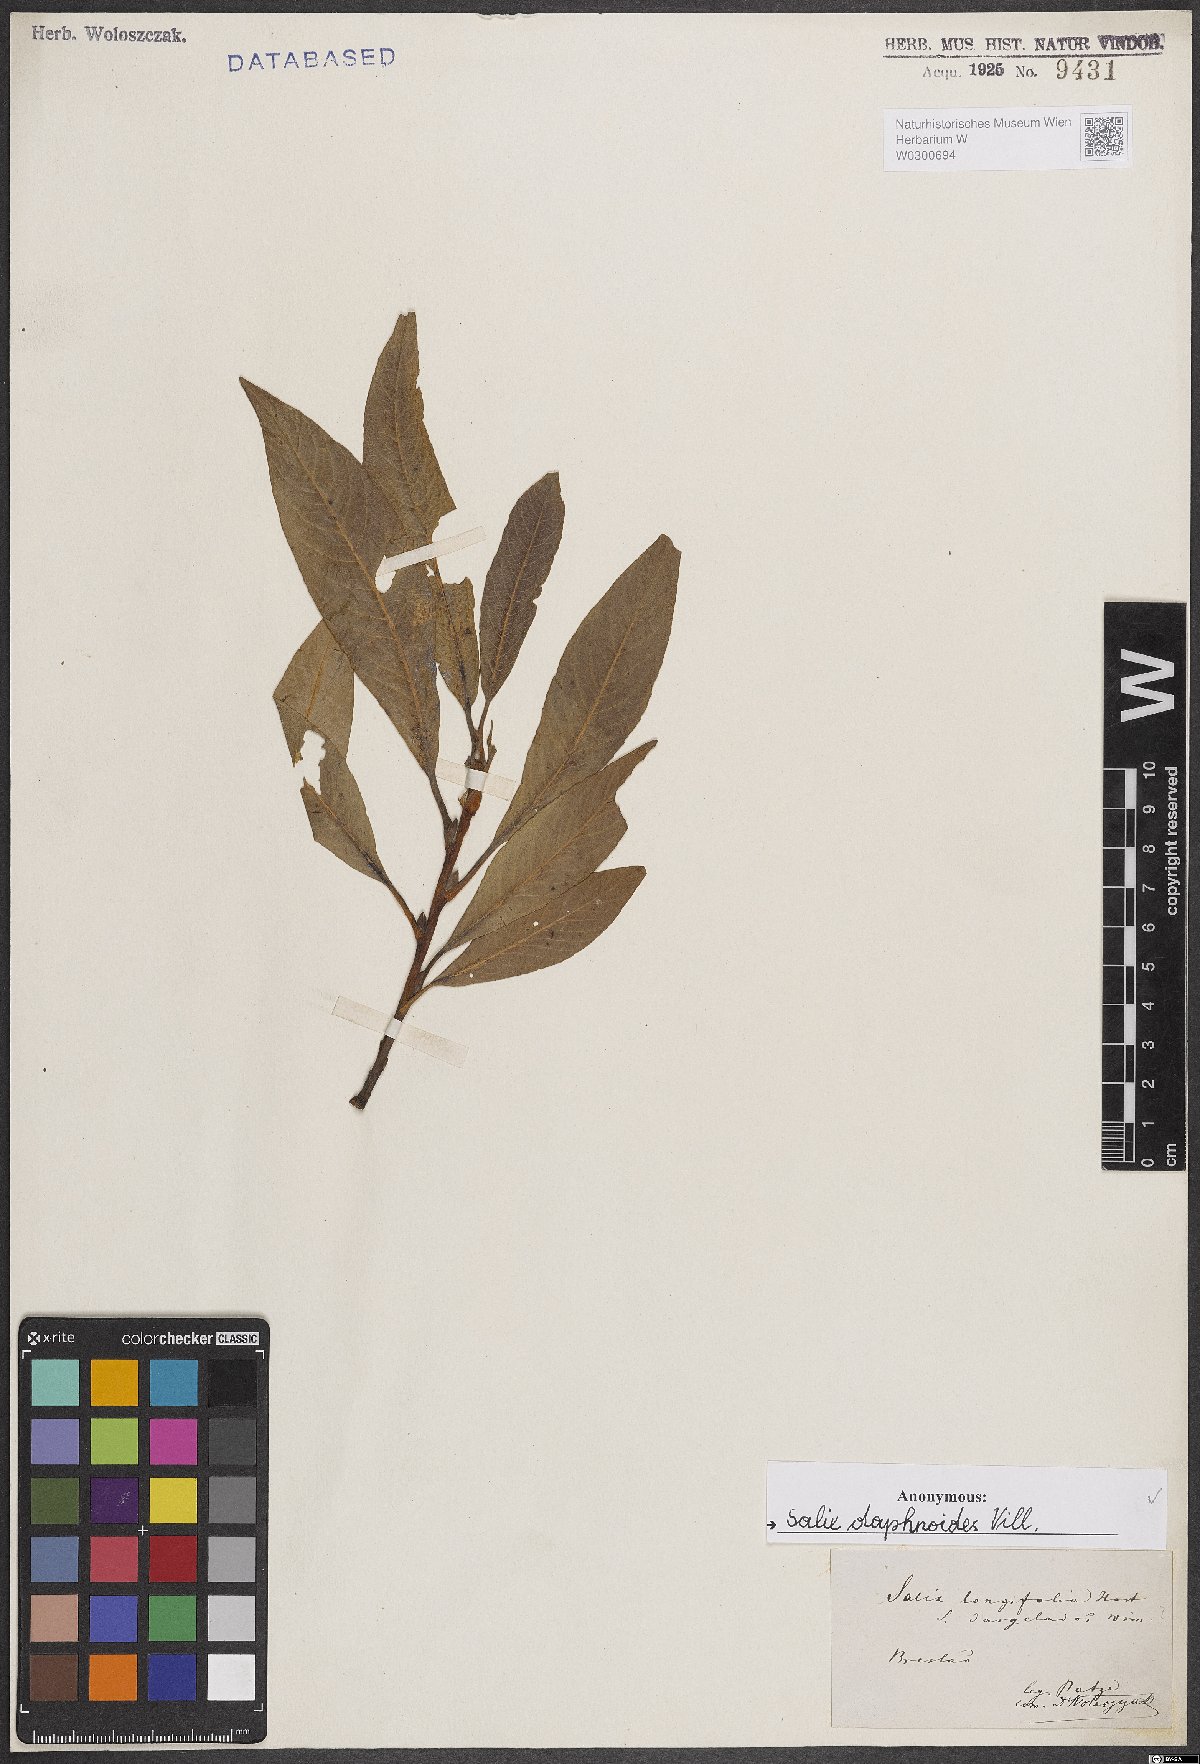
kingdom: Plantae
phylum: Tracheophyta
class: Magnoliopsida
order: Malpighiales
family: Salicaceae
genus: Salix
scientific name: Salix daphnoides
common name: European violet-willow
